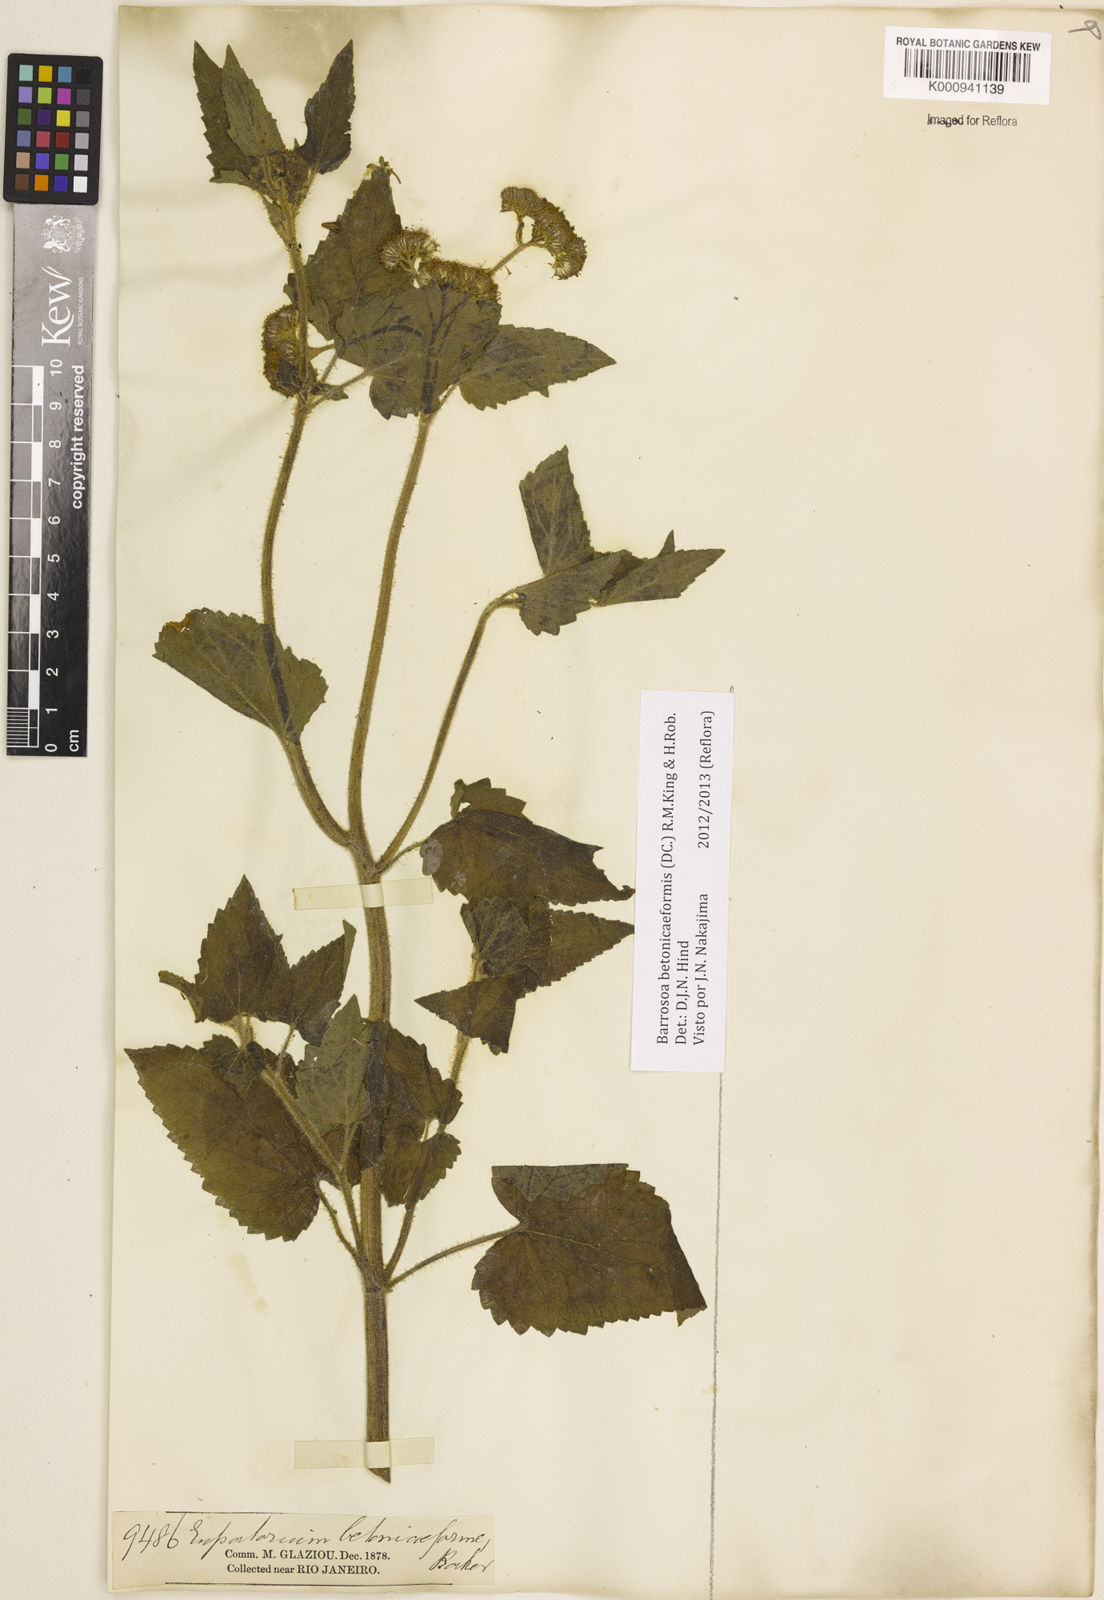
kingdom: Plantae
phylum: Tracheophyta
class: Magnoliopsida
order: Asterales
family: Asteraceae
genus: Barrosoa
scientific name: Barrosoa betoniciformis
